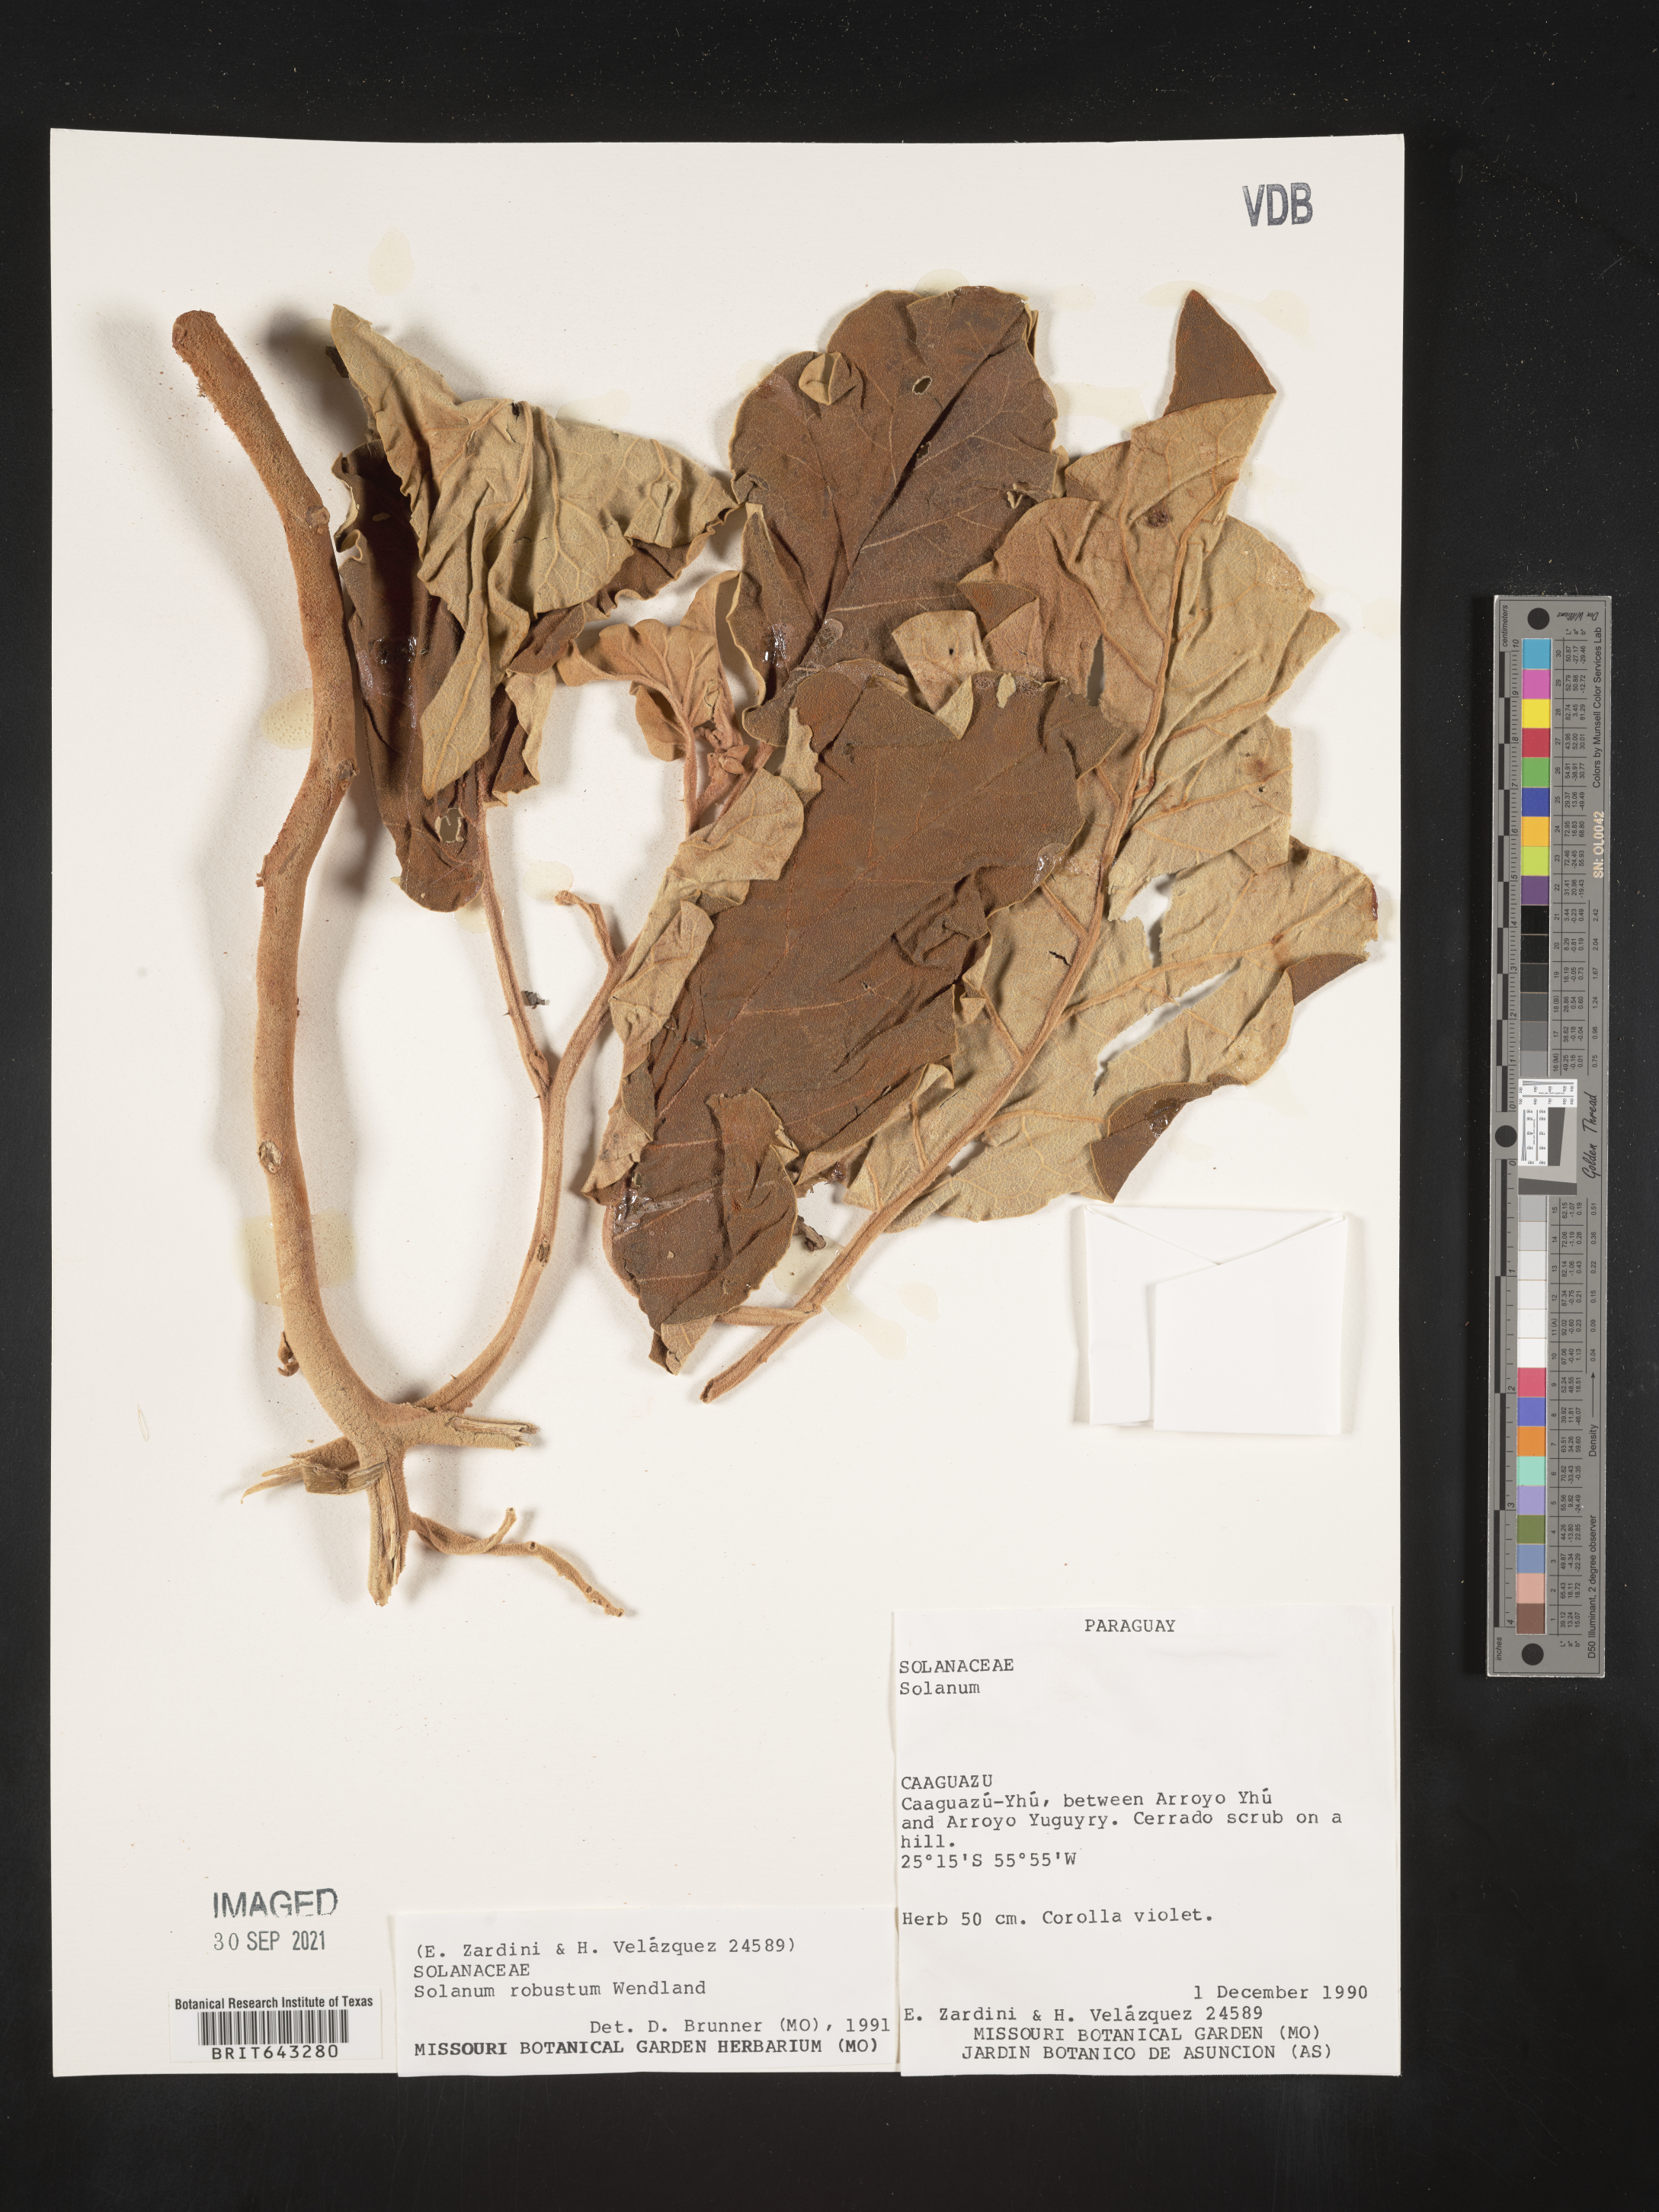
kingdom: Plantae
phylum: Tracheophyta
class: Magnoliopsida
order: Solanales
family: Solanaceae
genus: Solanum
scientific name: Solanum
